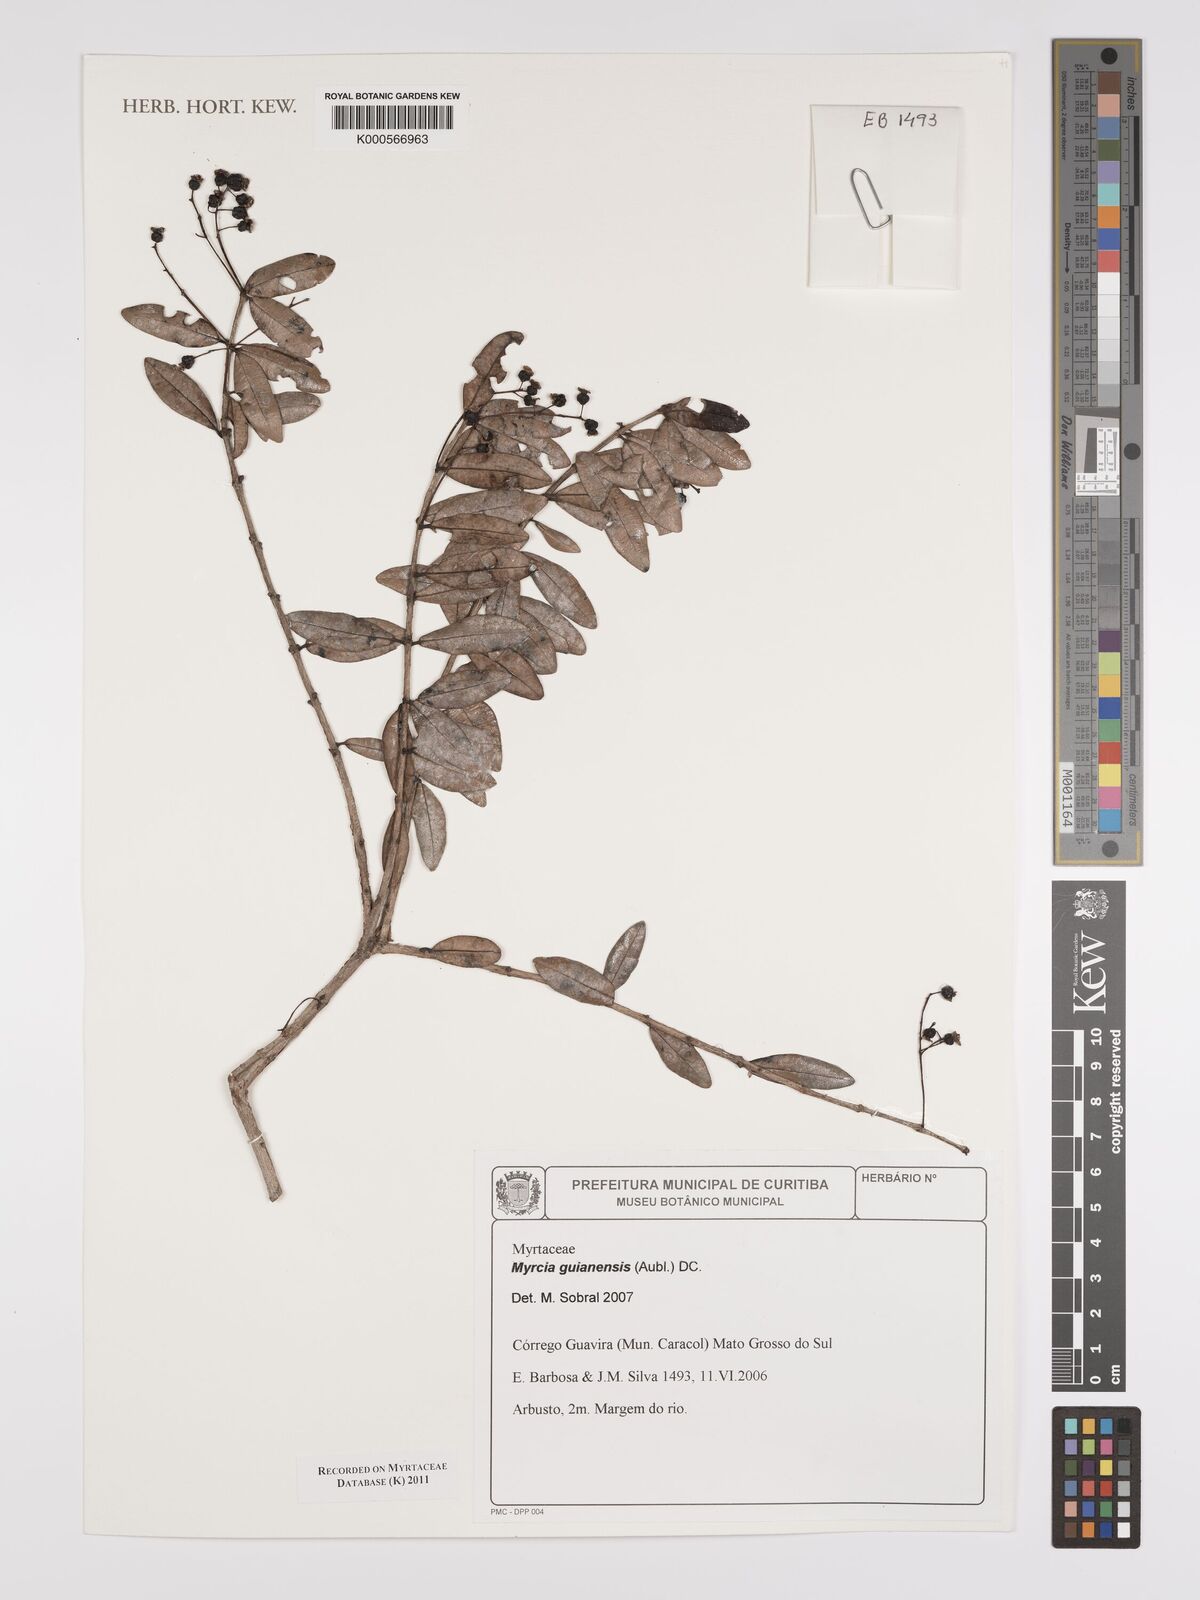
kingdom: Plantae
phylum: Tracheophyta
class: Magnoliopsida
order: Myrtales
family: Myrtaceae
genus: Myrcia
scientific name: Myrcia guianensis
